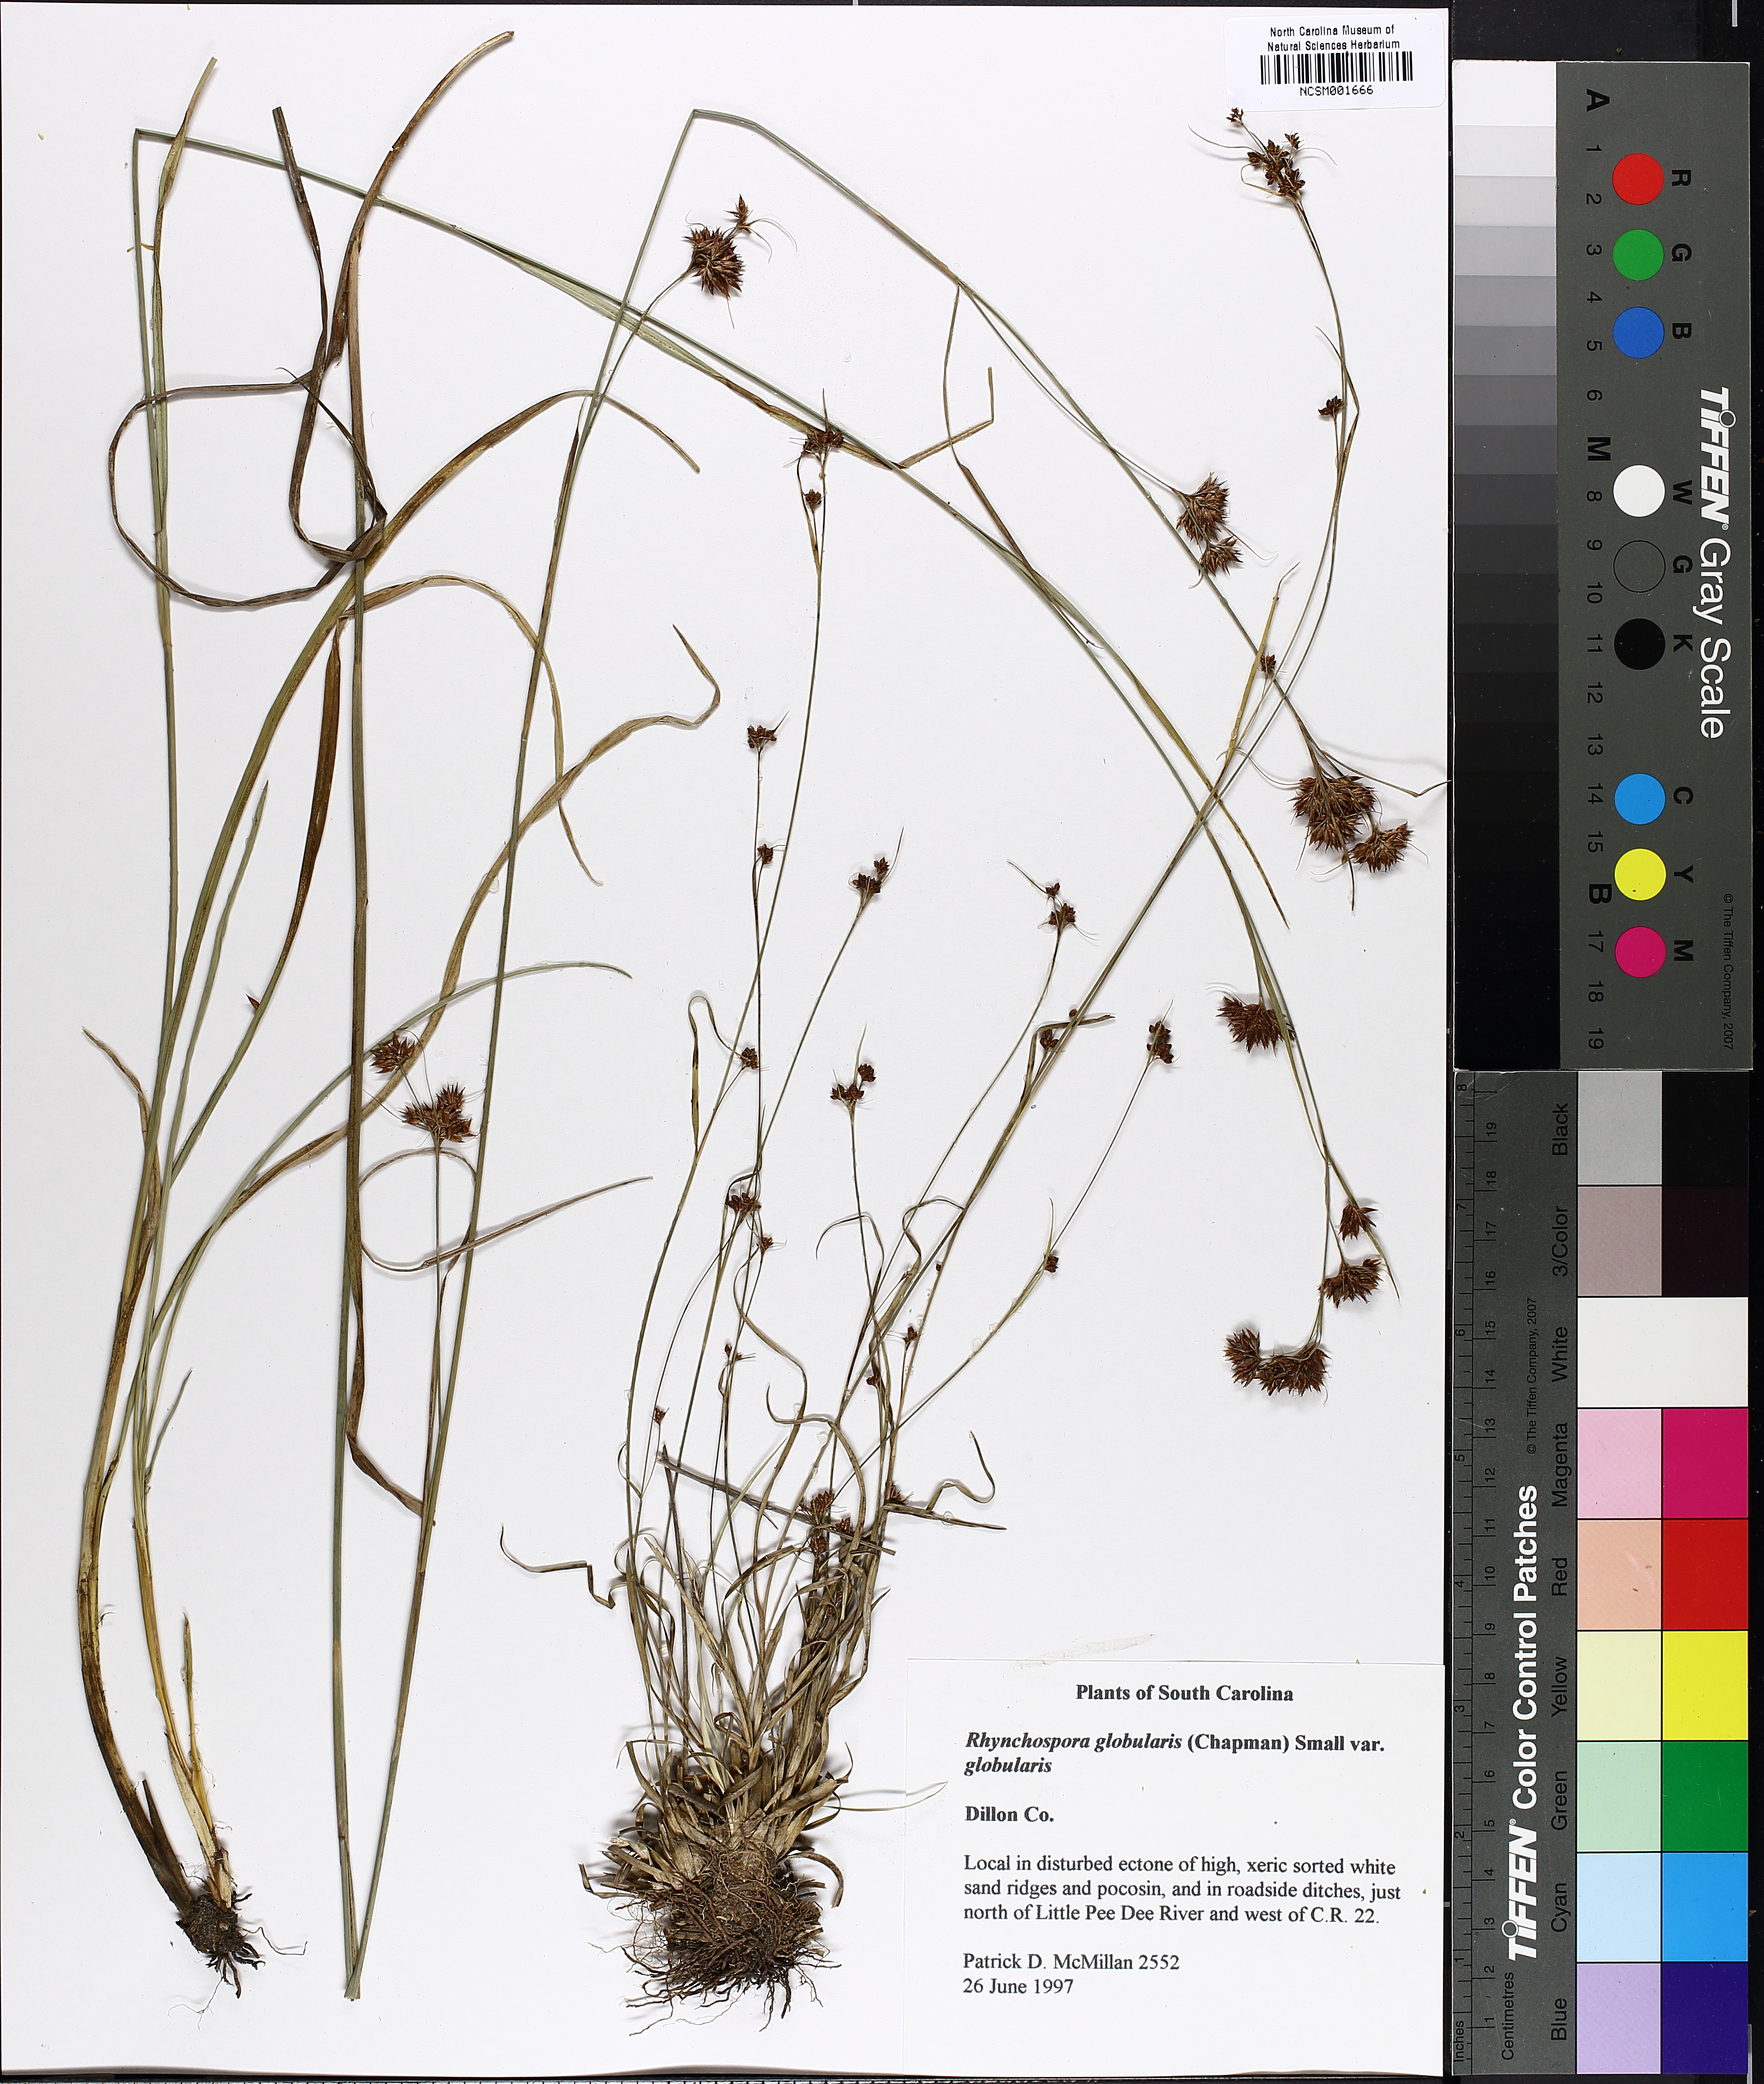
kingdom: Plantae
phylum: Tracheophyta
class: Liliopsida
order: Poales
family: Cyperaceae
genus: Rhynchospora
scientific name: Rhynchospora globularis
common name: Globe beaksedge
